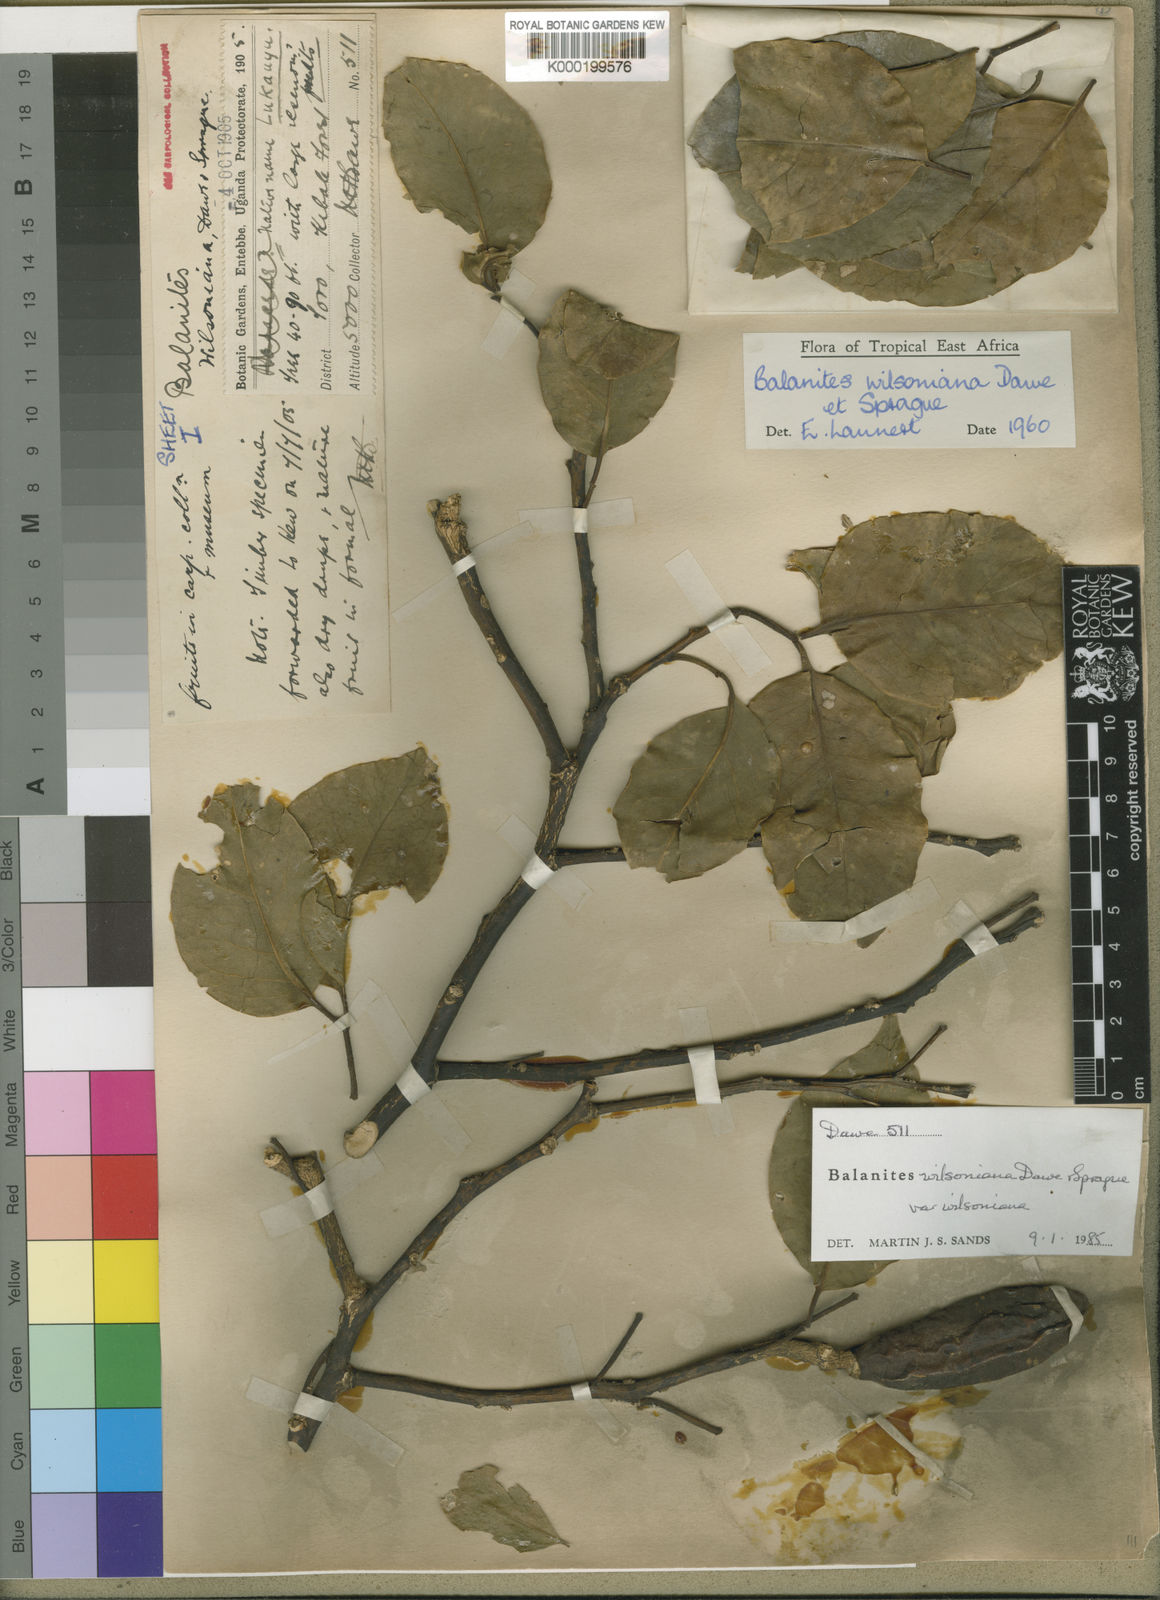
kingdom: Plantae
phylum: Tracheophyta
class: Magnoliopsida
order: Zygophyllales
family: Zygophyllaceae
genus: Balanites
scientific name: Balanites wilsoniana
